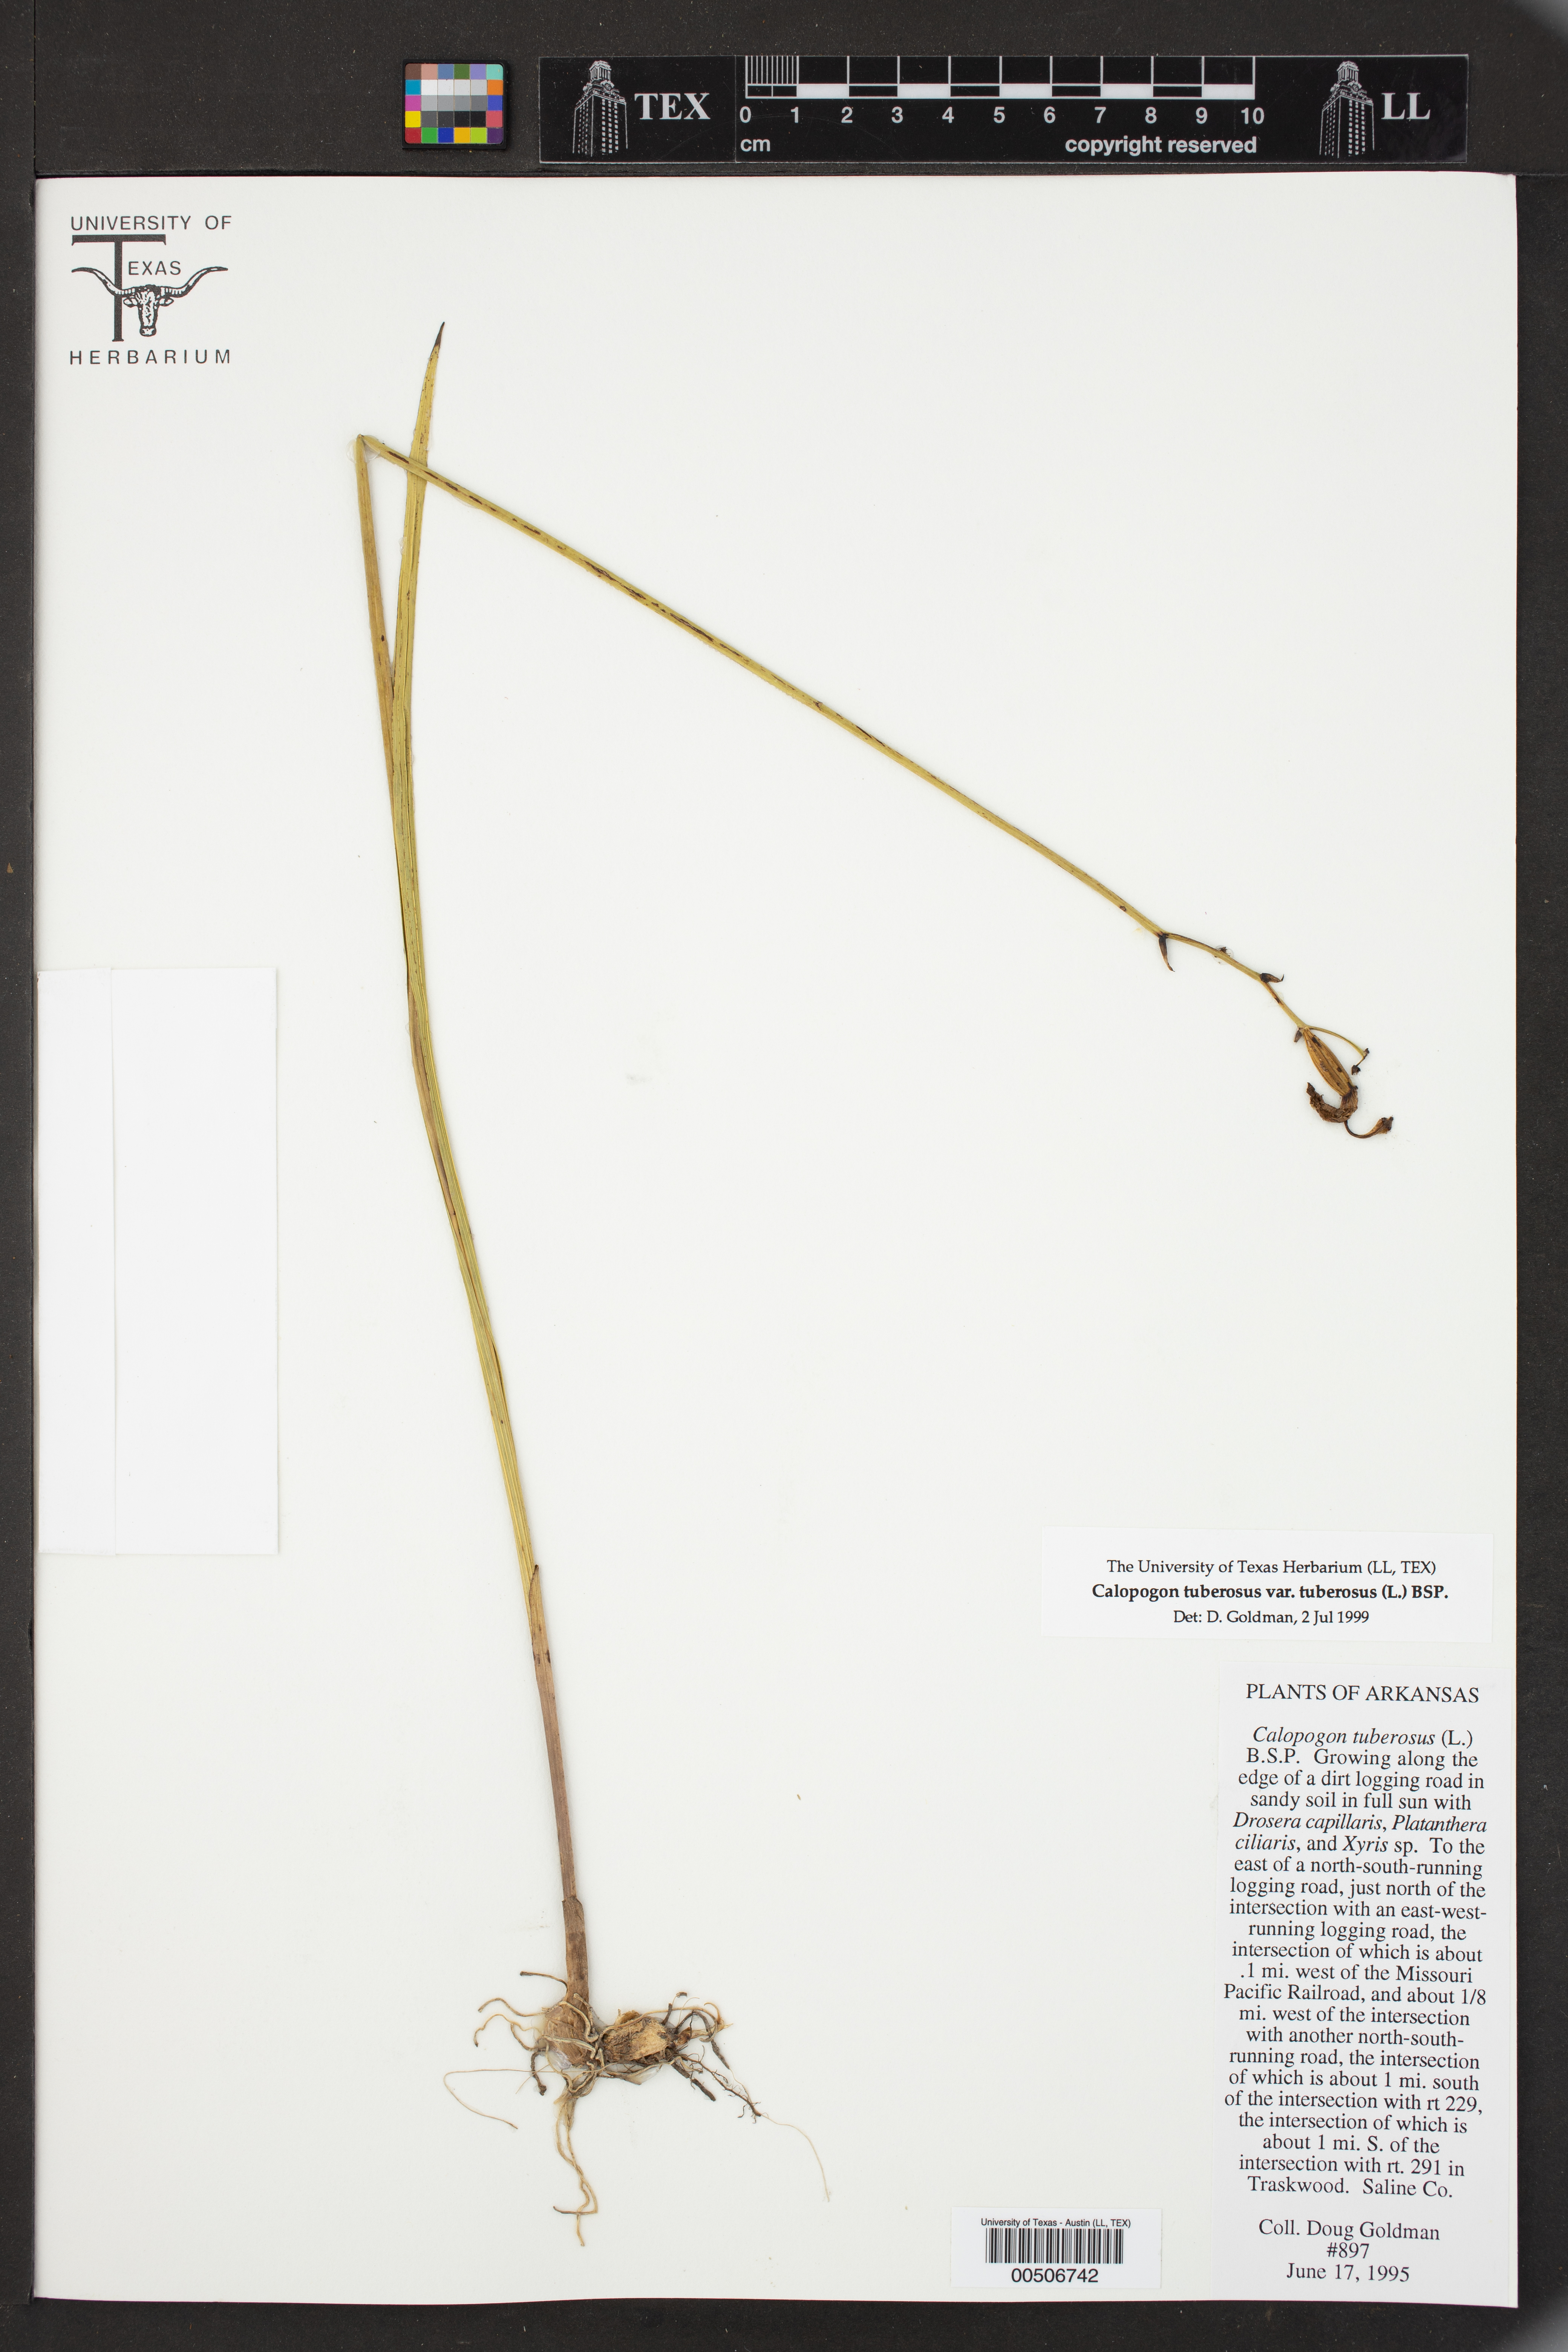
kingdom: Plantae
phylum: Tracheophyta
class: Liliopsida
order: Asparagales
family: Orchidaceae
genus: Calopogon
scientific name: Calopogon tuberosus
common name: Grass-pink
